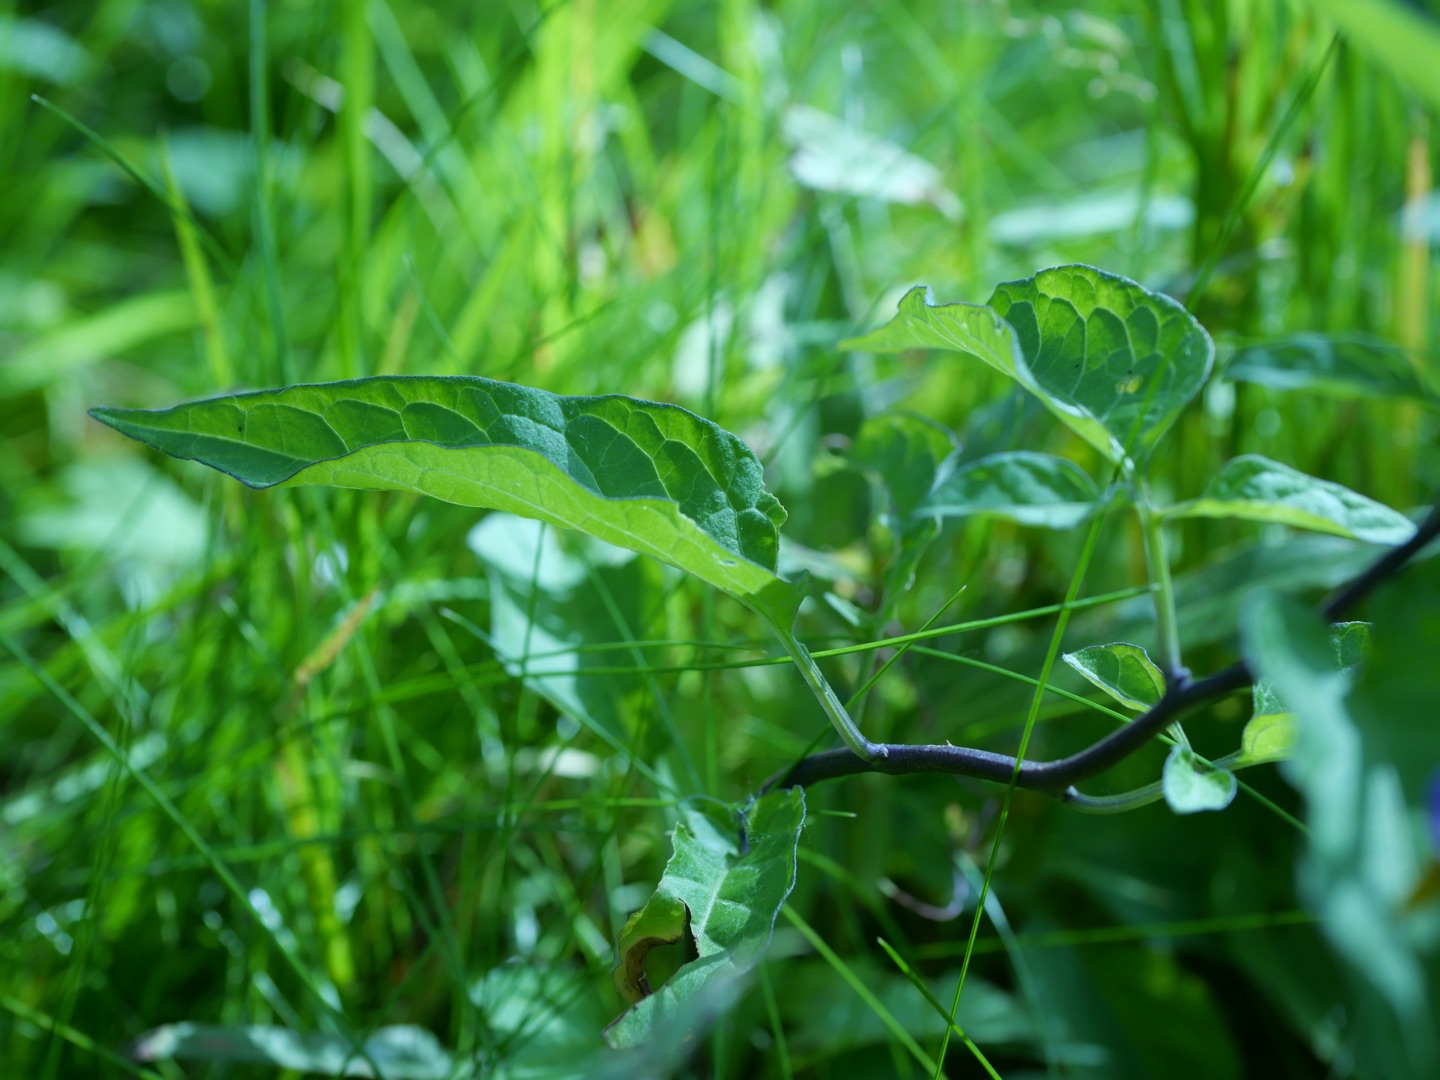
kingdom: Plantae
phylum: Tracheophyta
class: Magnoliopsida
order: Solanales
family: Solanaceae
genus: Solanum
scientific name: Solanum dulcamara
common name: Bittersød natskygge
